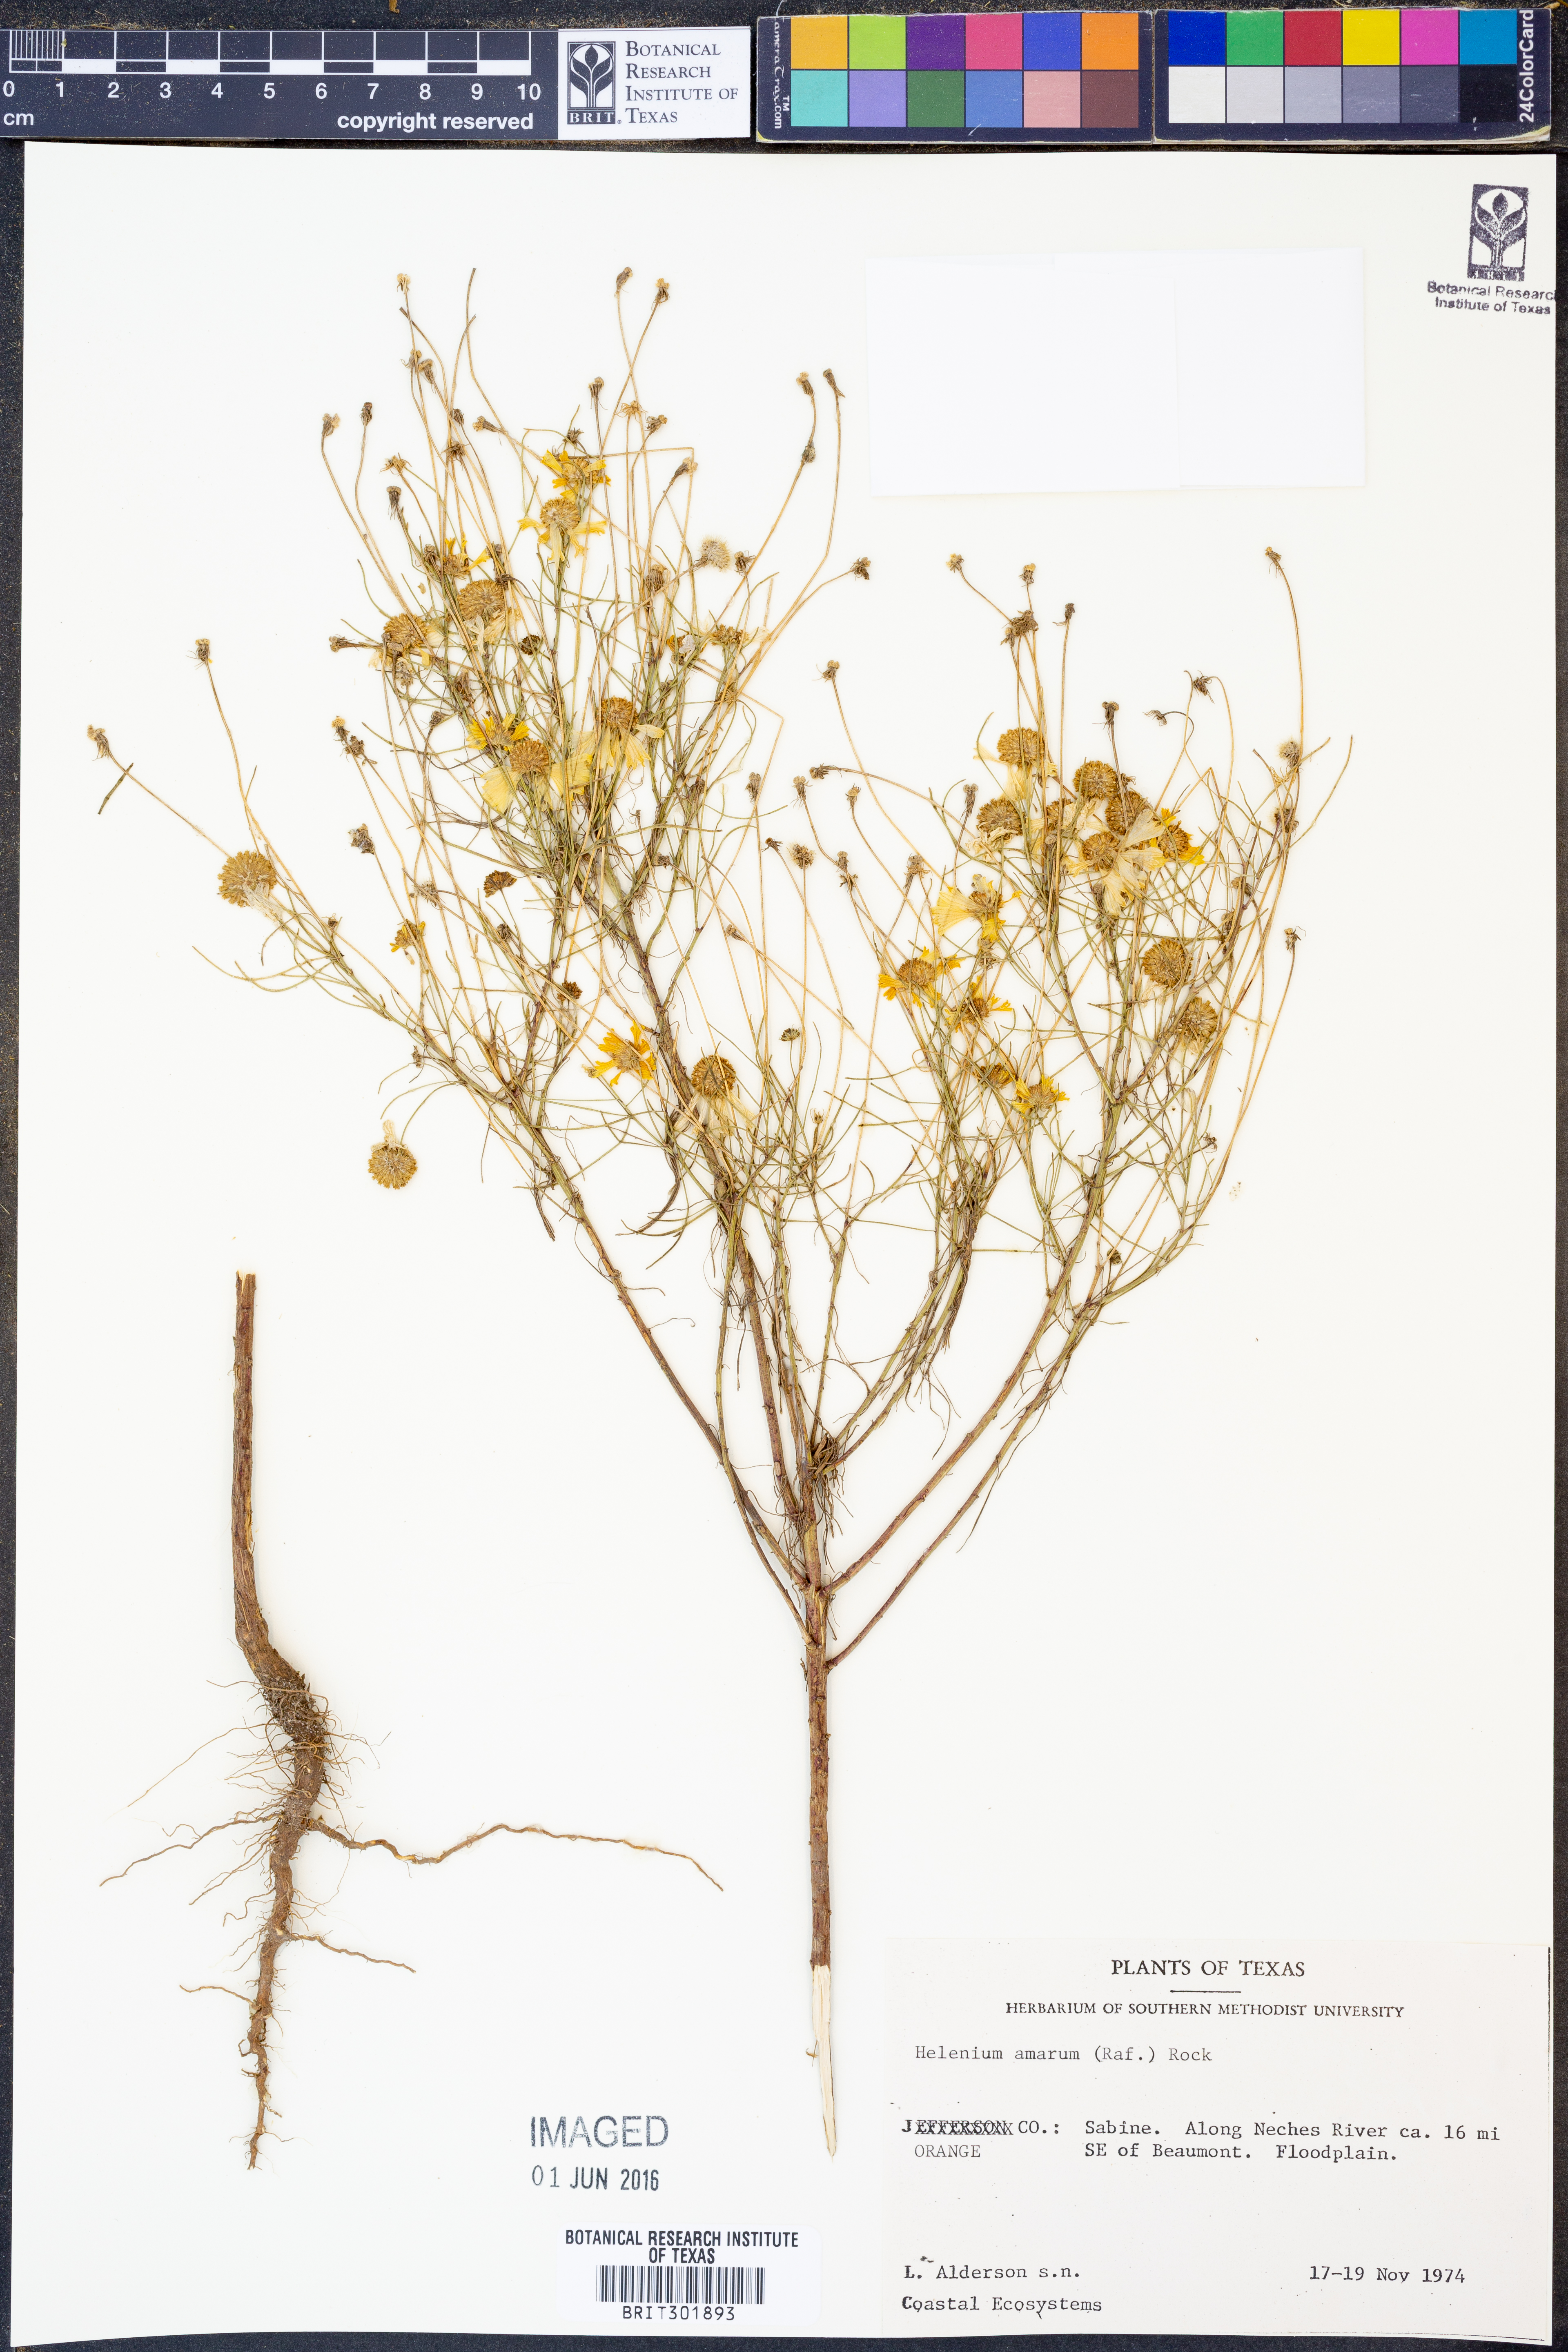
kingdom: Plantae
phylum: Tracheophyta
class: Magnoliopsida
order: Asterales
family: Asteraceae
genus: Helenium
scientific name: Helenium amarum
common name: Bitter sneezeweed
